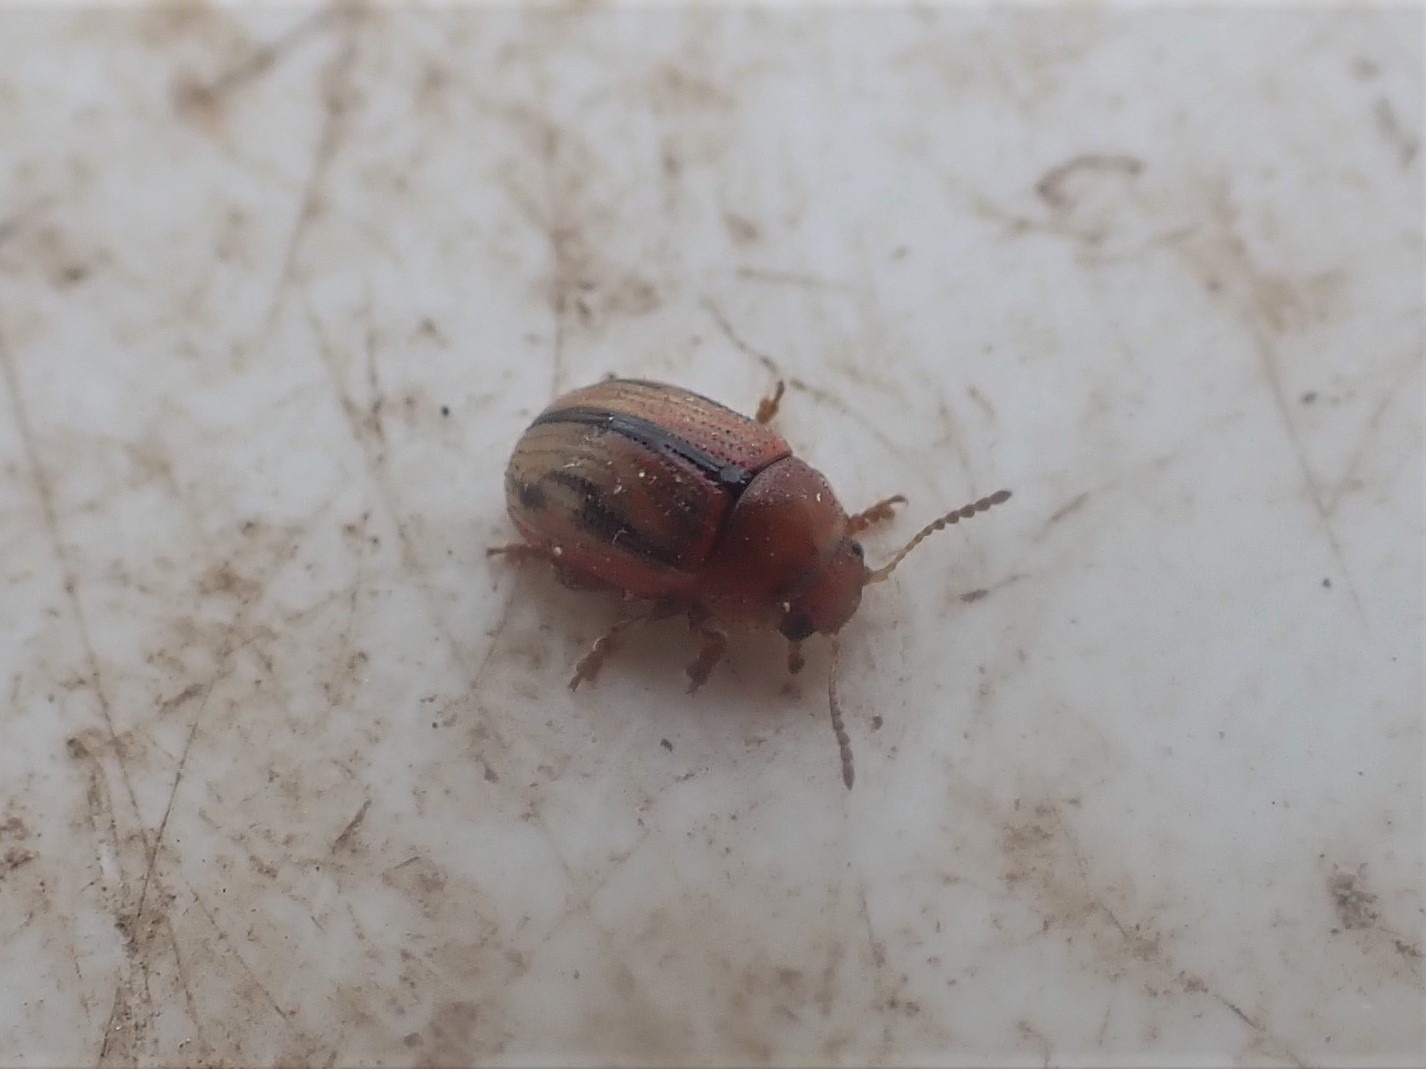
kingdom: Animalia
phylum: Arthropoda
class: Insecta
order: Coleoptera
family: Chrysomelidae
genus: Gonioctena
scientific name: Gonioctena olivacea
